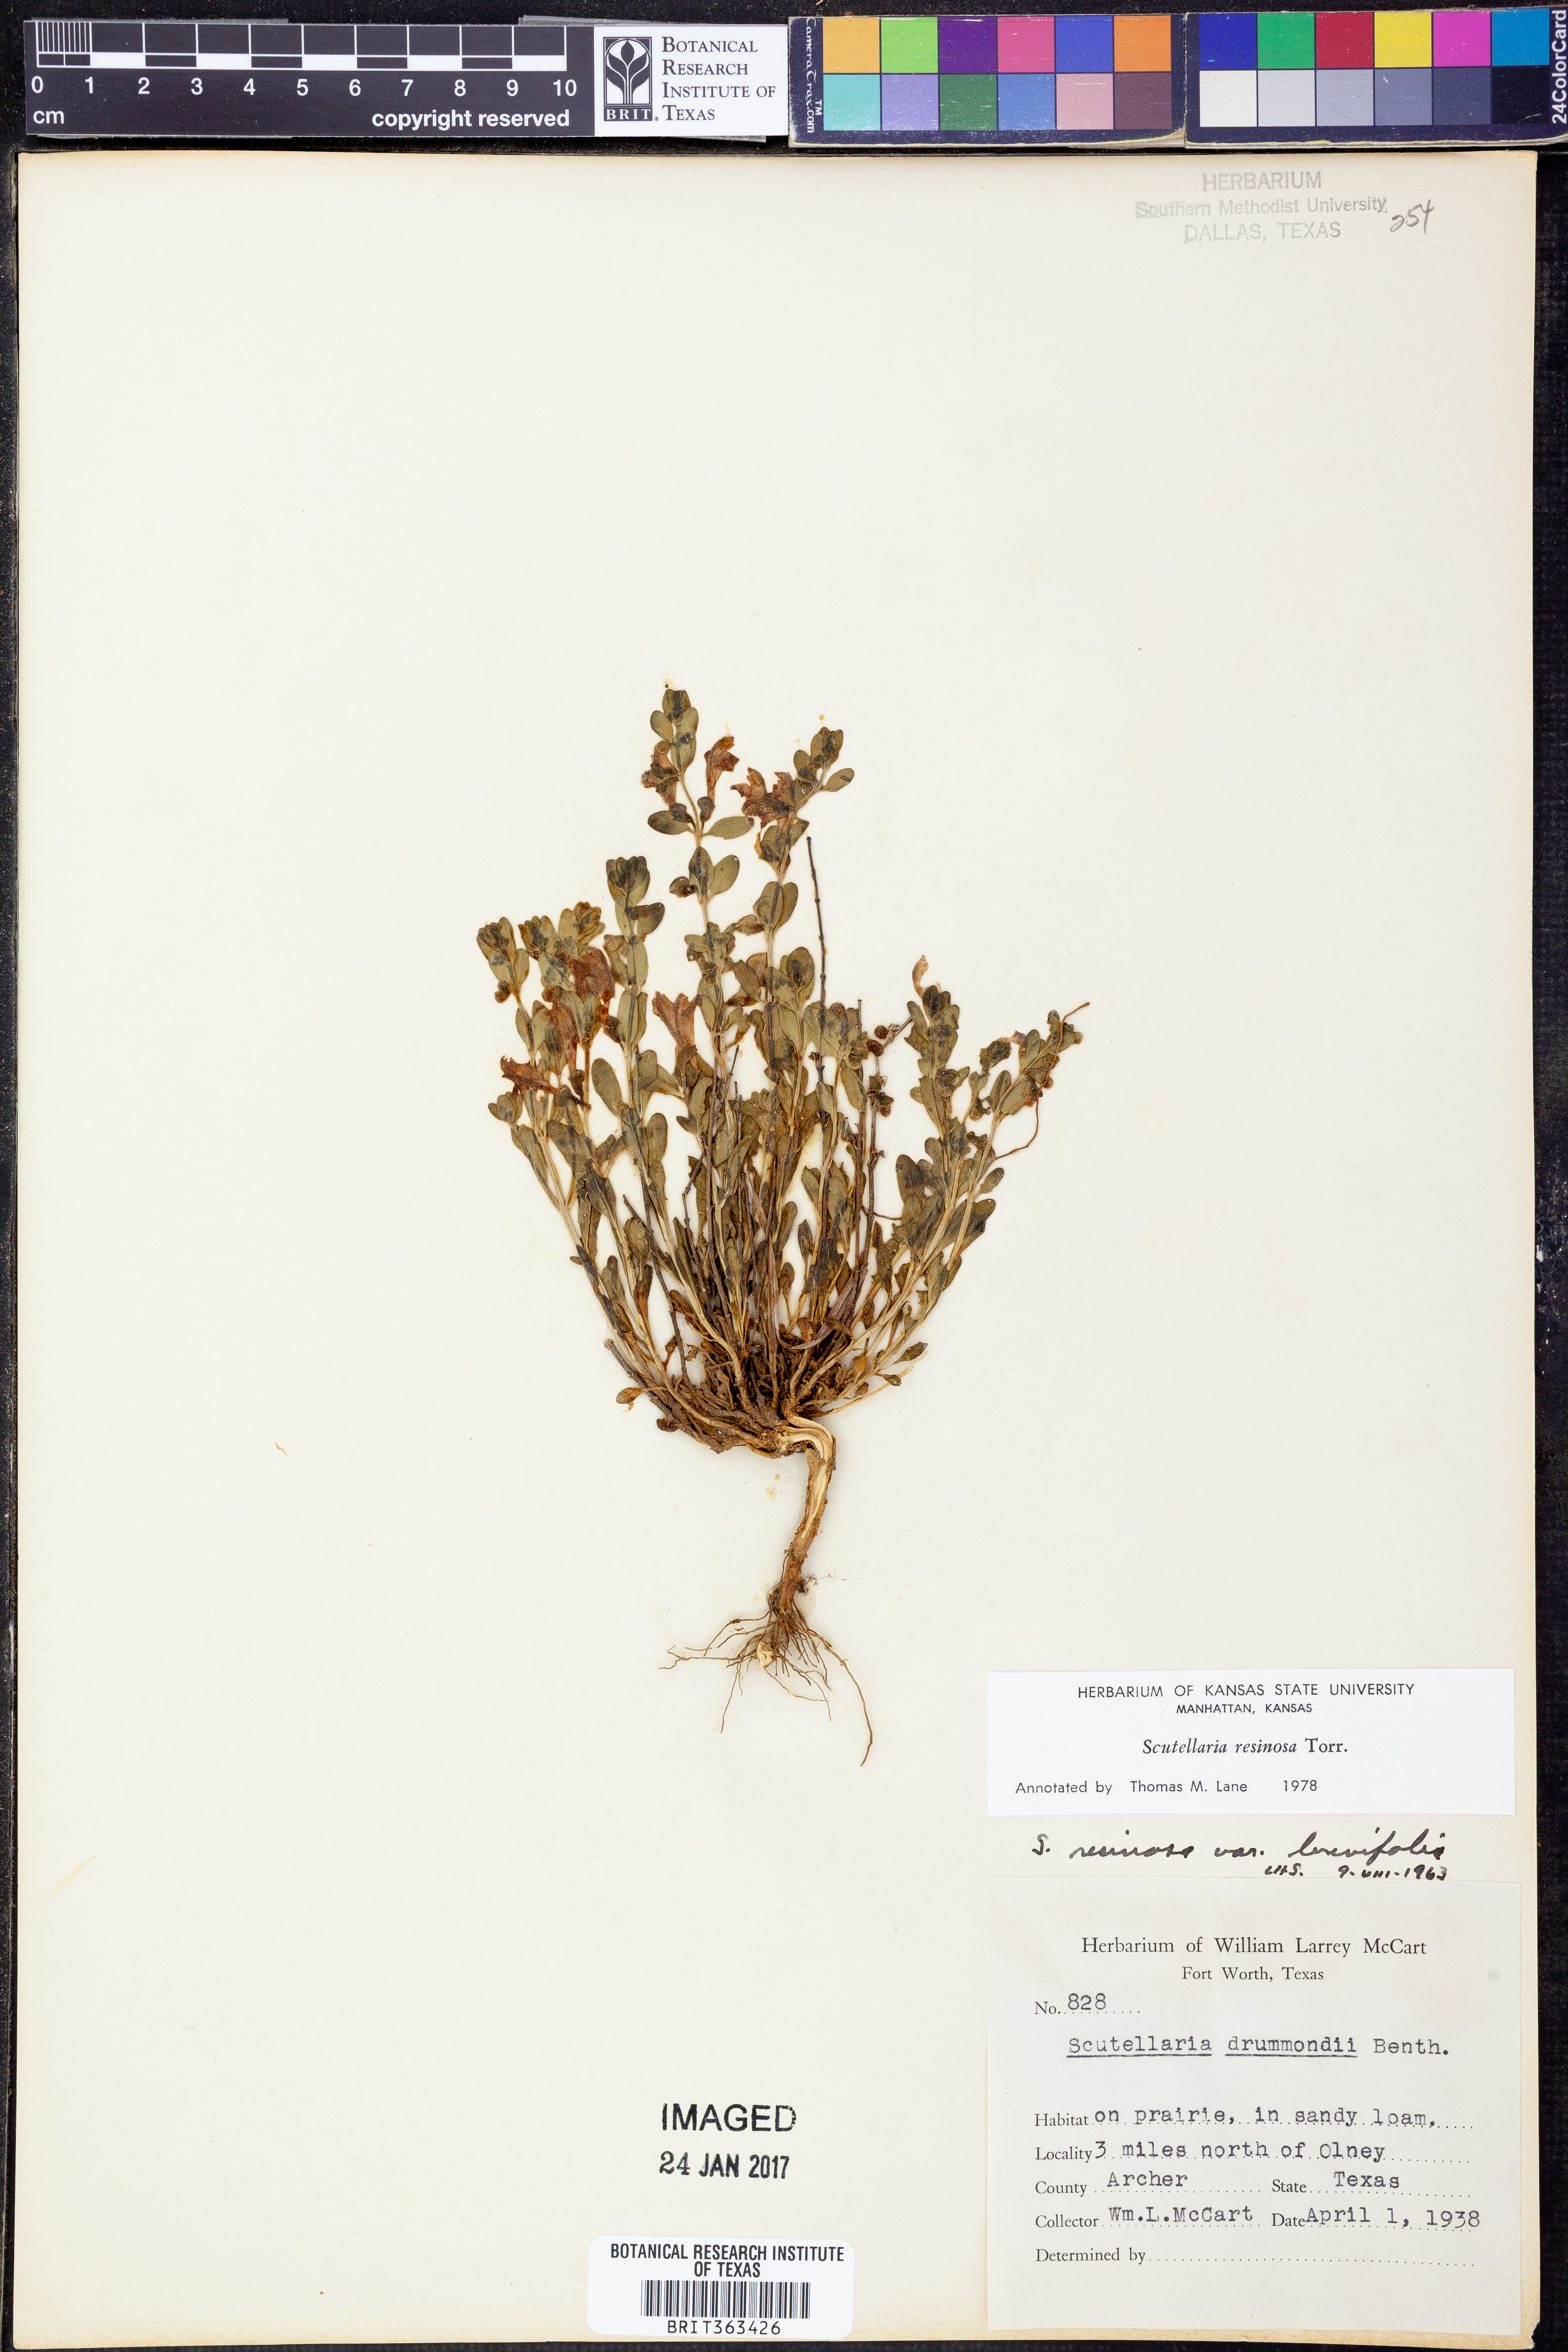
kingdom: Plantae
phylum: Tracheophyta
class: Magnoliopsida
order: Lamiales
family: Lamiaceae
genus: Scutellaria
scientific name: Scutellaria resinosa
